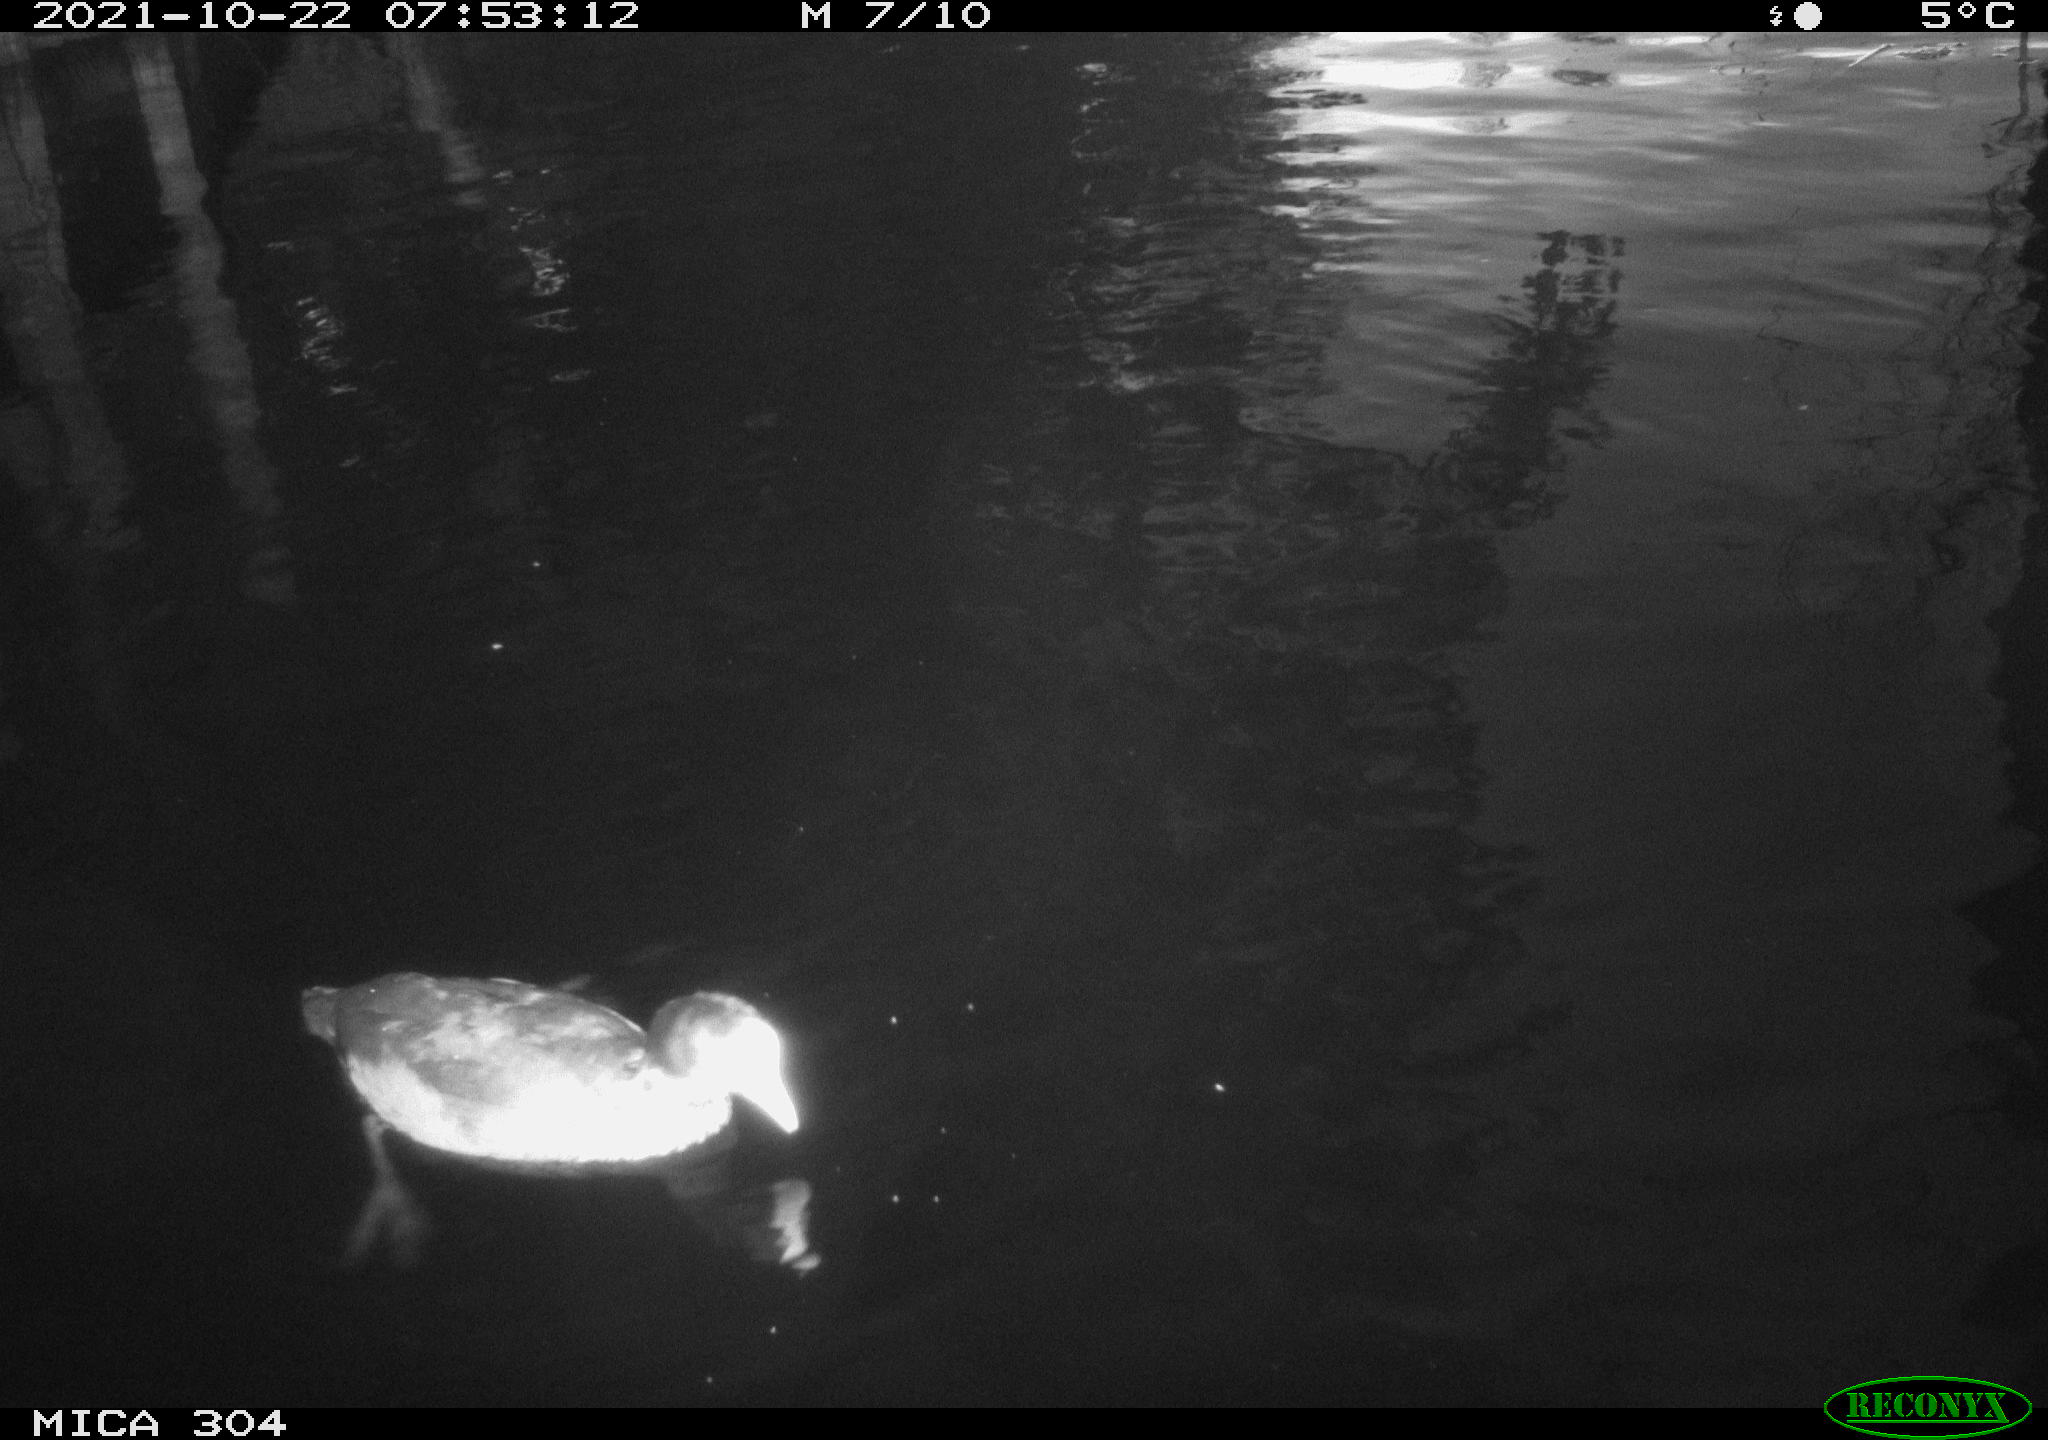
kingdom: Animalia
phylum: Chordata
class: Aves
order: Gruiformes
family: Rallidae
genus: Gallinula
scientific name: Gallinula chloropus
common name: Common moorhen
